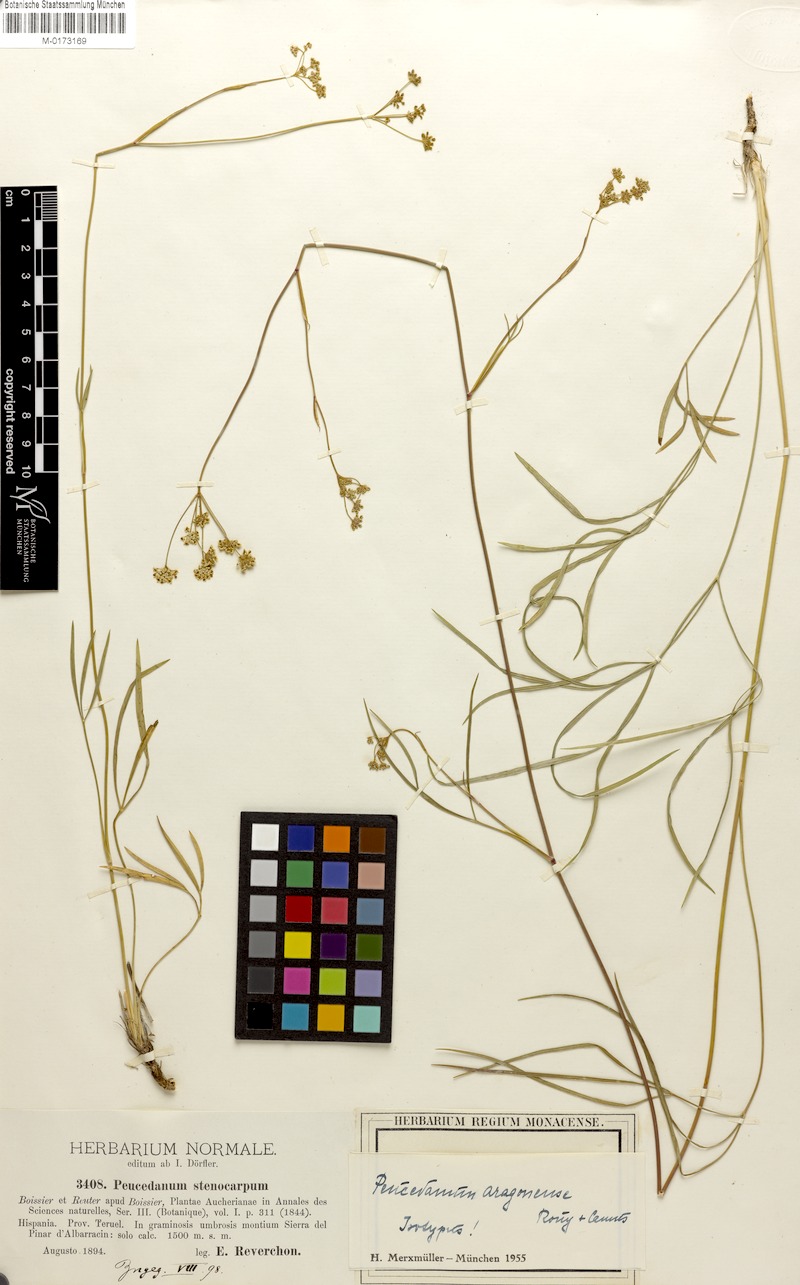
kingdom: Plantae
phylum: Tracheophyta
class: Magnoliopsida
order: Apiales
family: Apiaceae
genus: Seseli
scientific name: Seseli cantabricum
